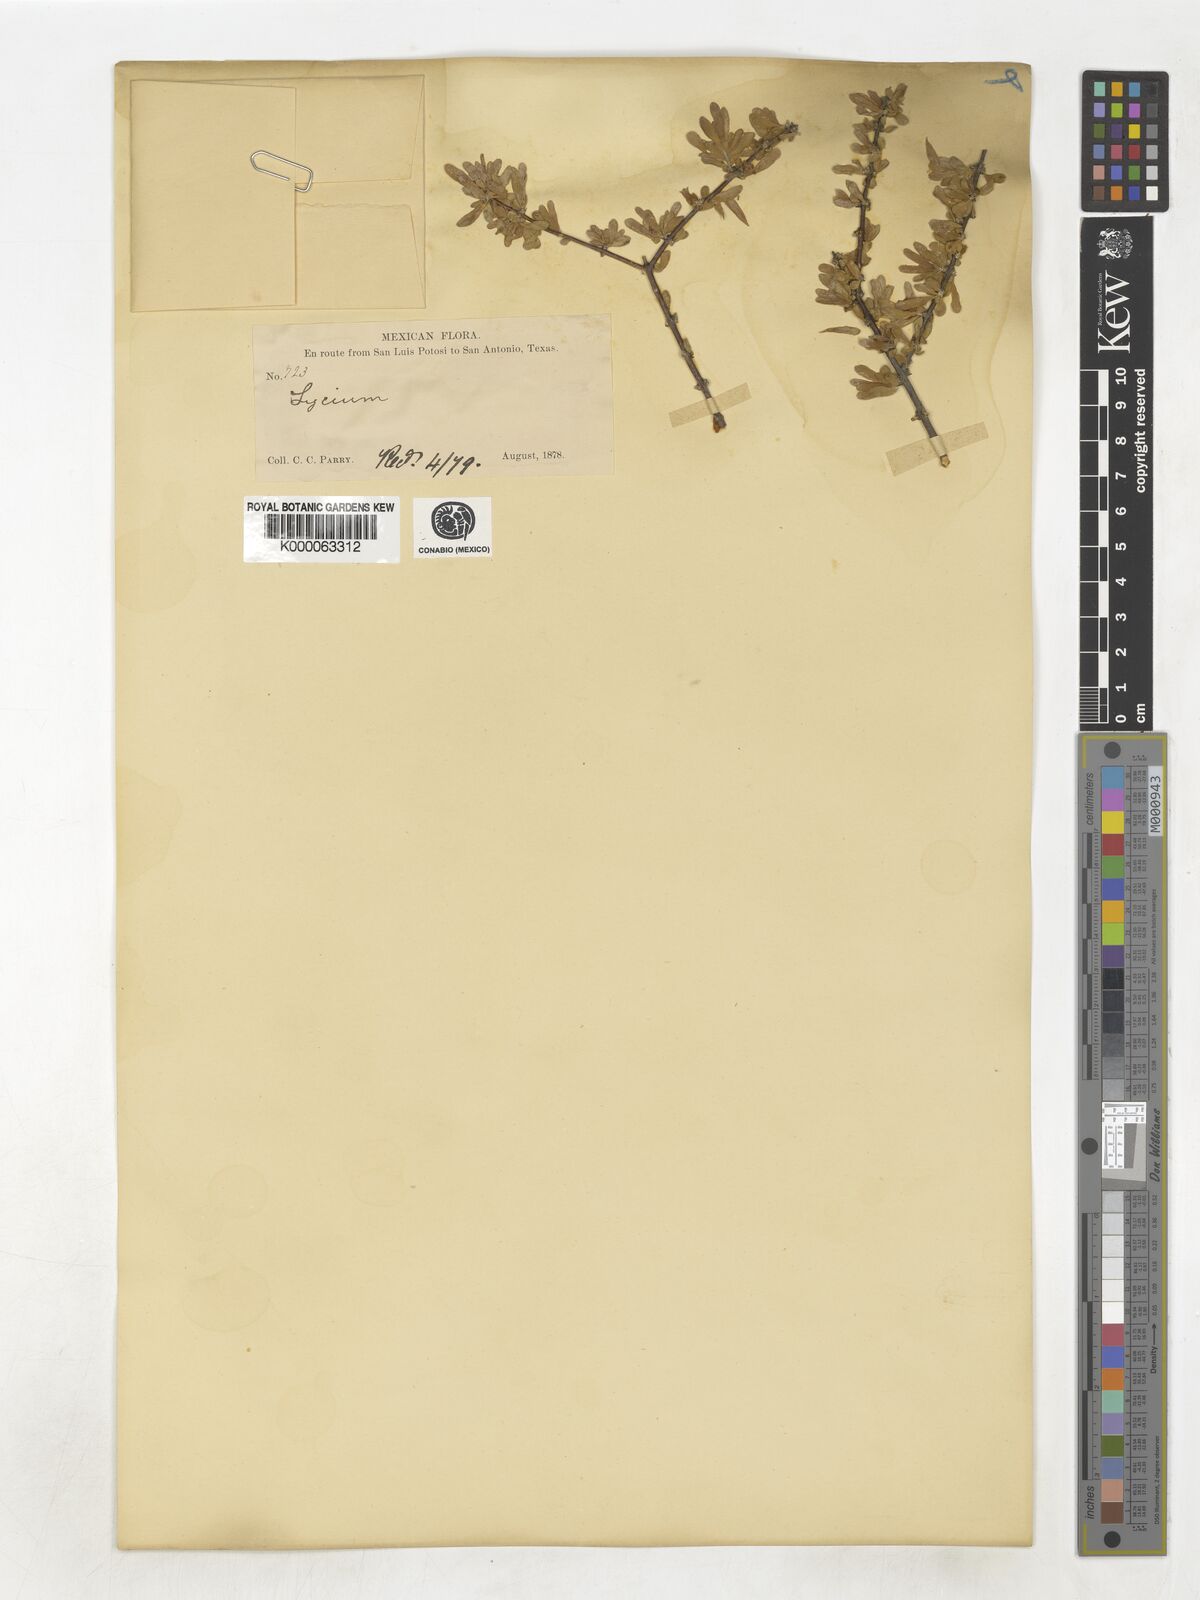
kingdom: Plantae
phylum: Tracheophyta
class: Magnoliopsida
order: Solanales
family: Solanaceae
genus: Lycium
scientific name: Lycium
